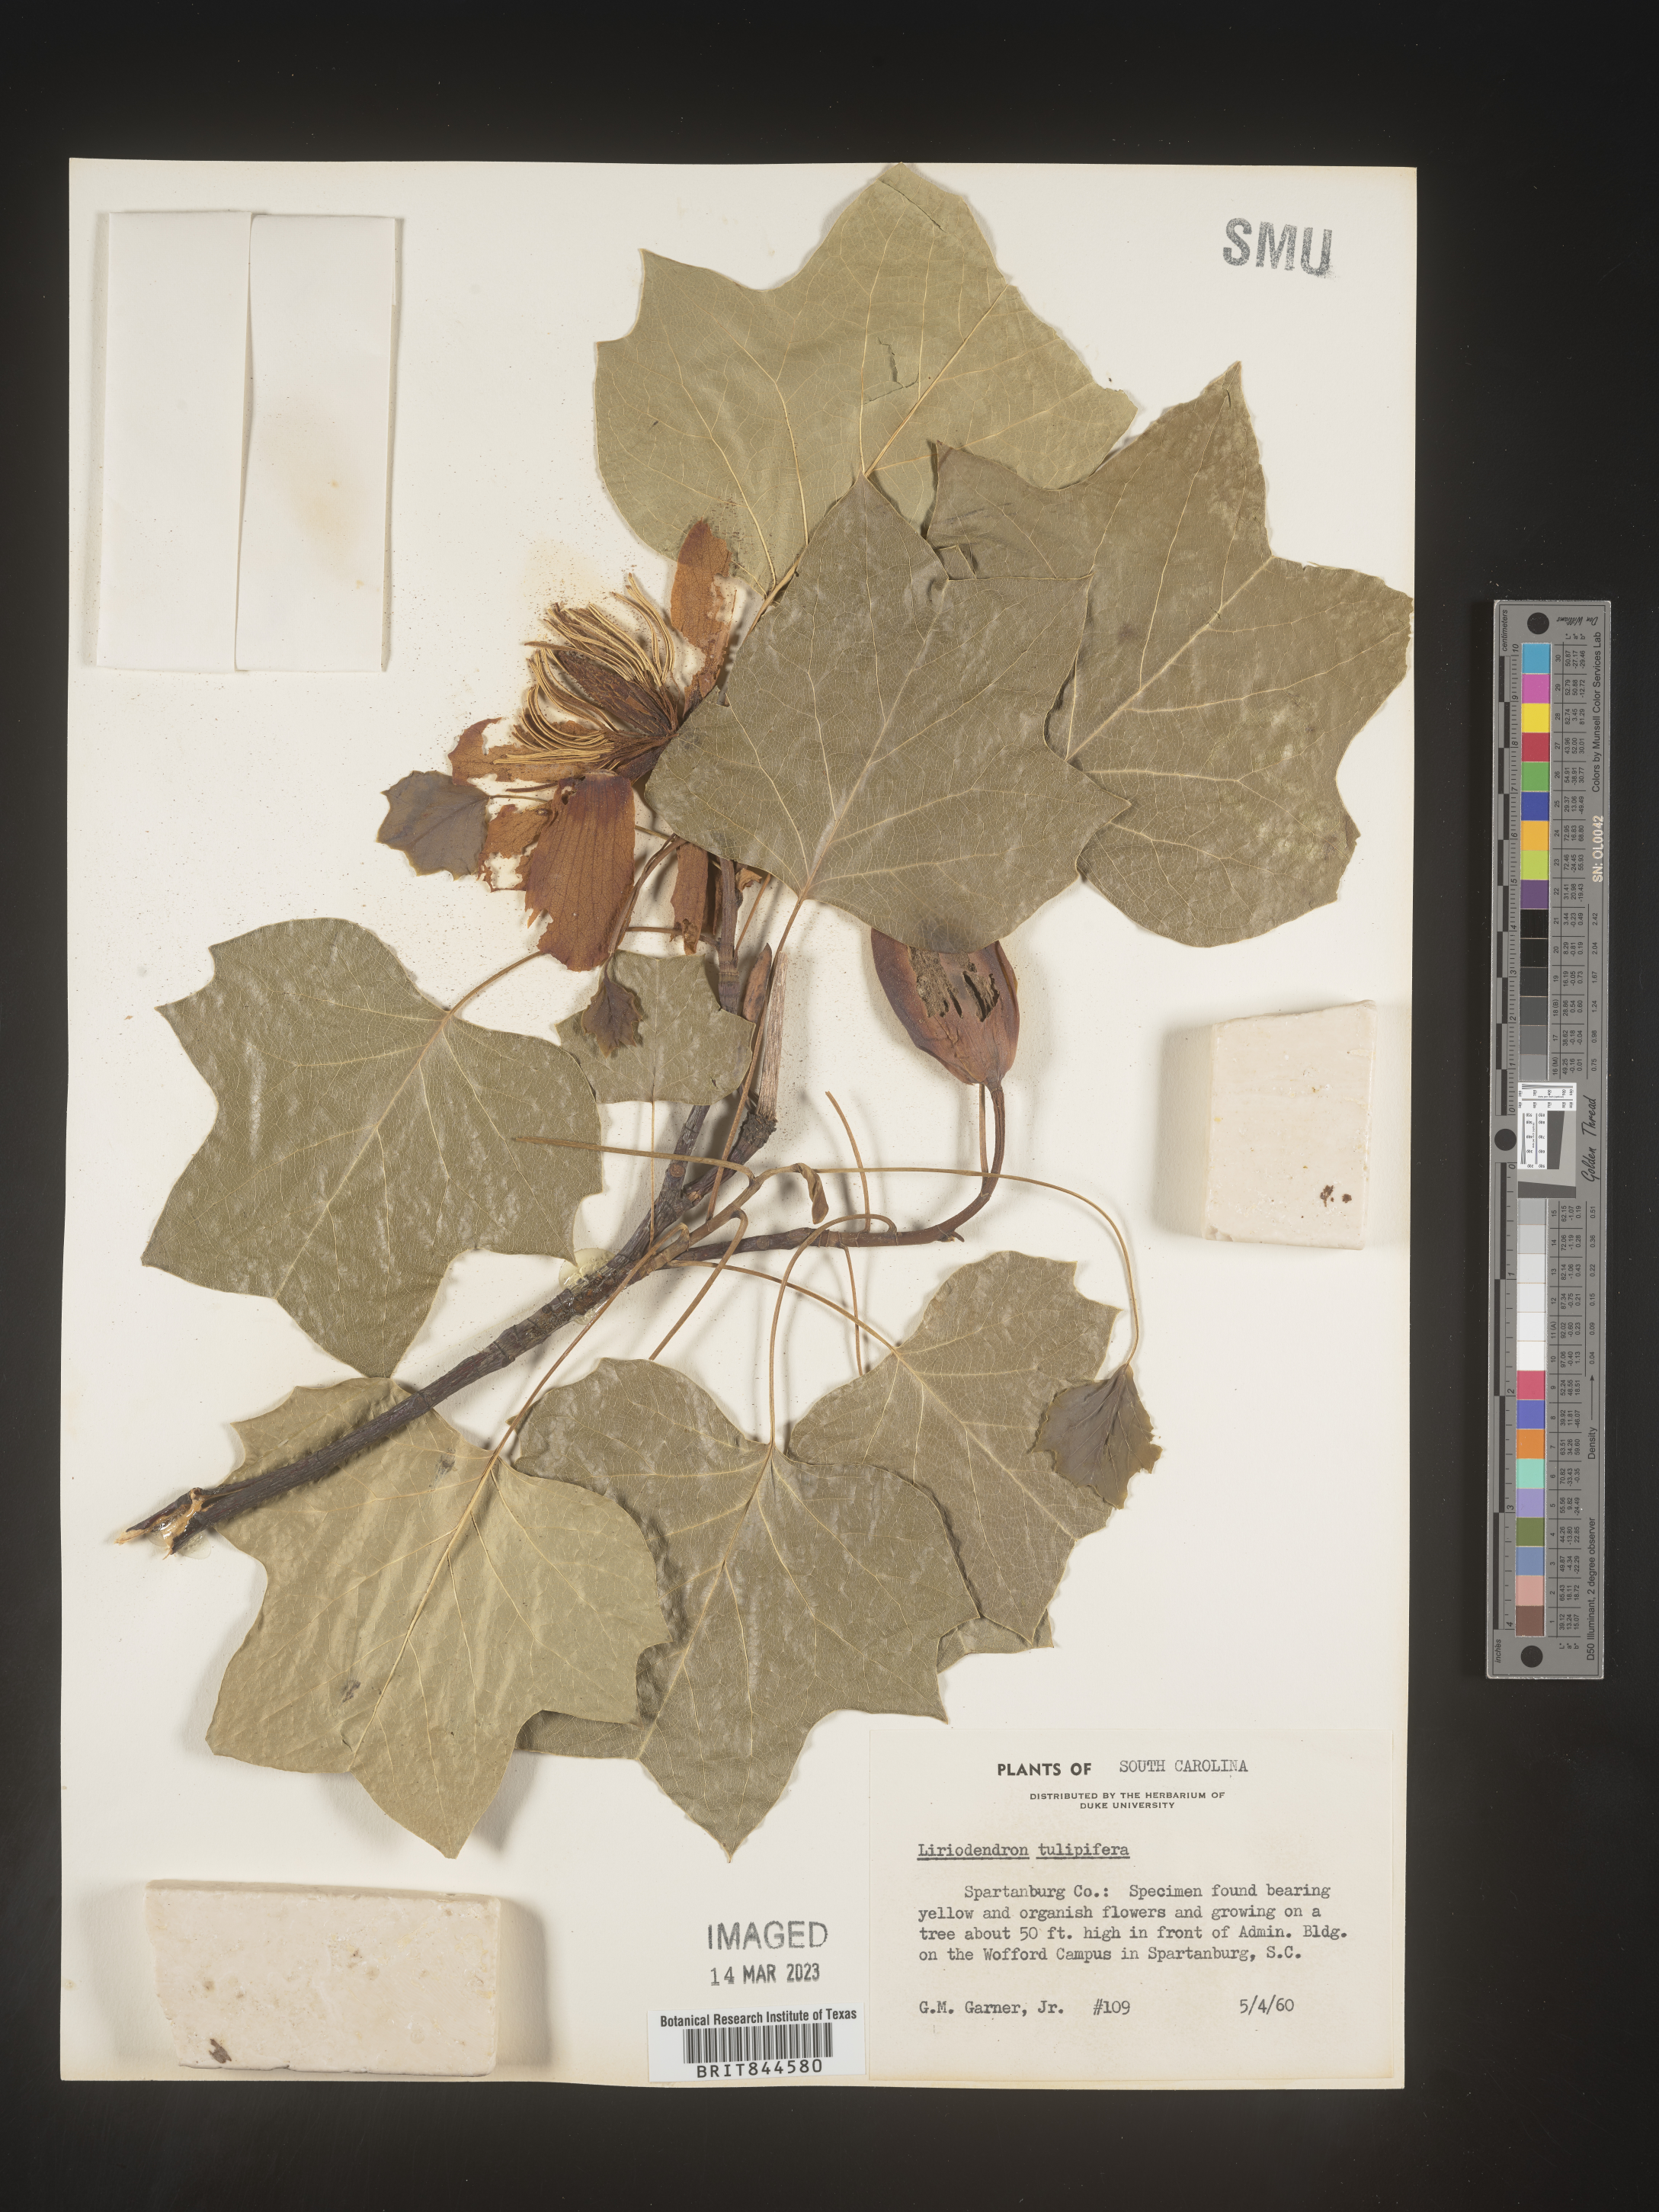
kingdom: Plantae
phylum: Tracheophyta
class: Magnoliopsida
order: Magnoliales
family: Magnoliaceae
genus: Liriodendron
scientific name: Liriodendron tulipifera
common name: Tulip tree
